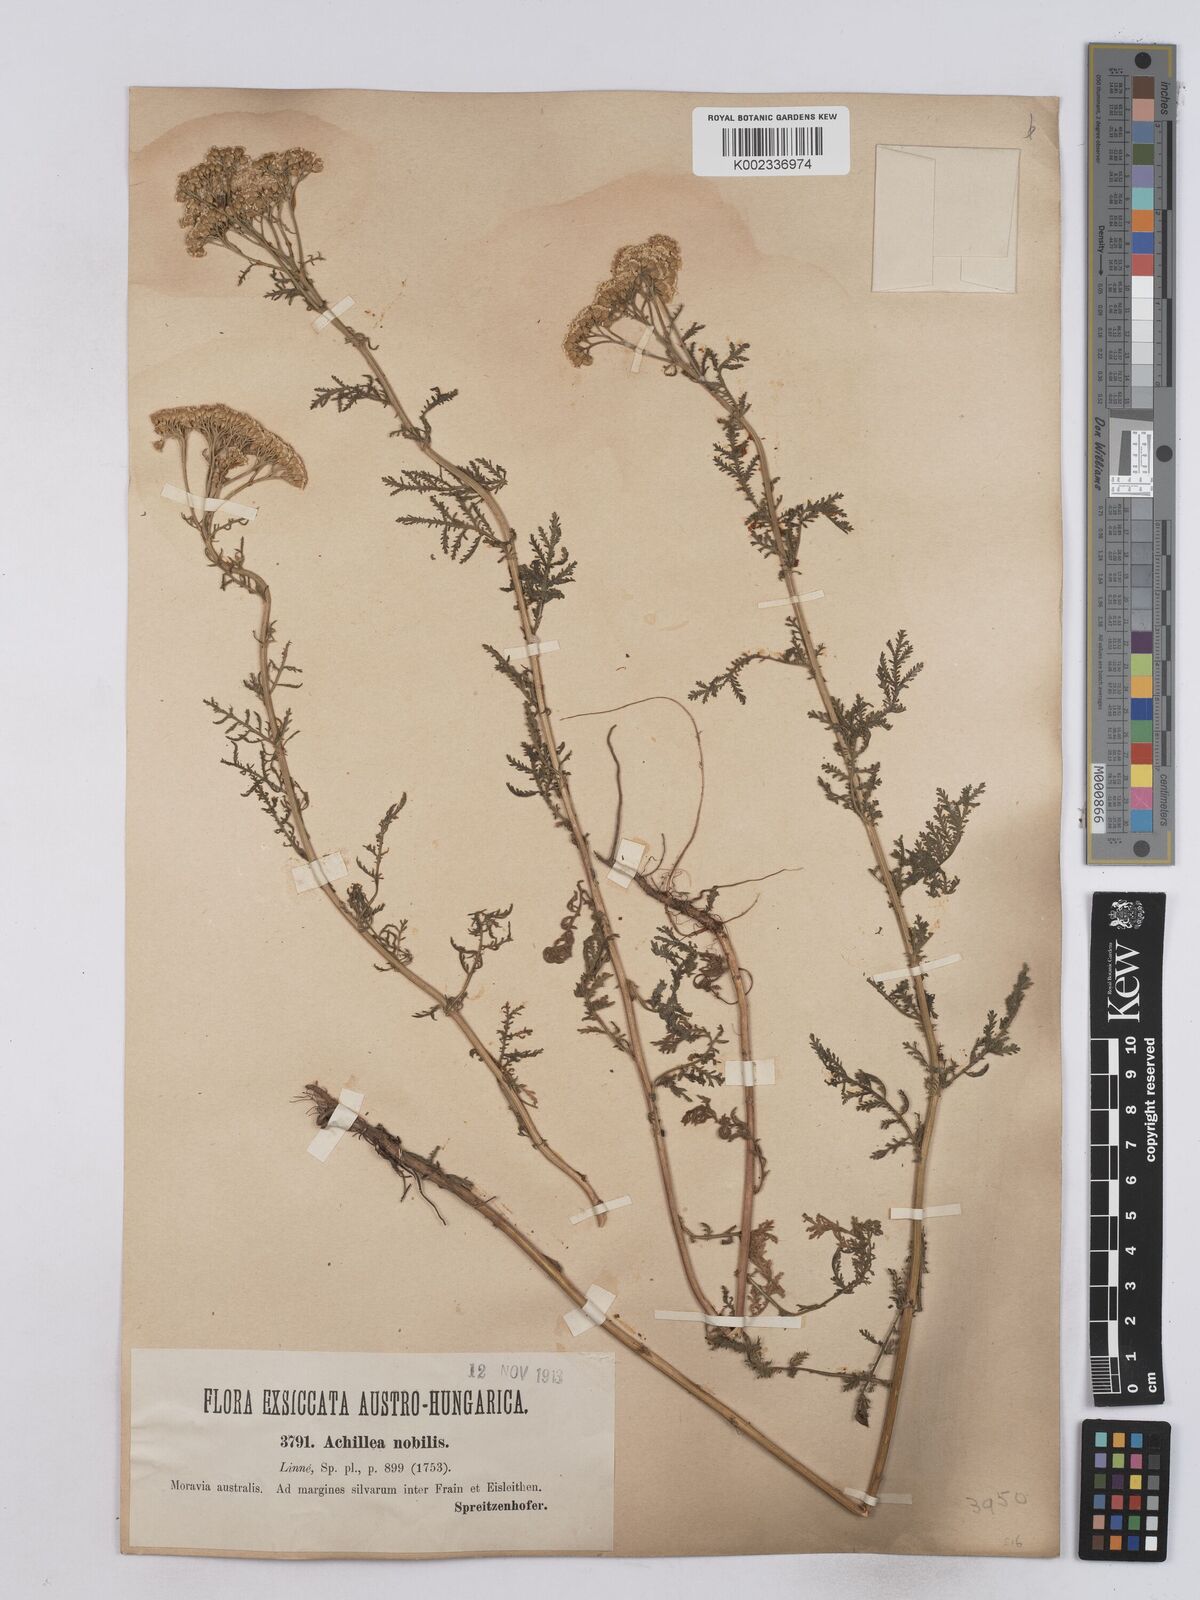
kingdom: Plantae
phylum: Tracheophyta
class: Magnoliopsida
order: Asterales
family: Asteraceae
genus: Achillea
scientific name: Achillea nobilis
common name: Noble yarrow
